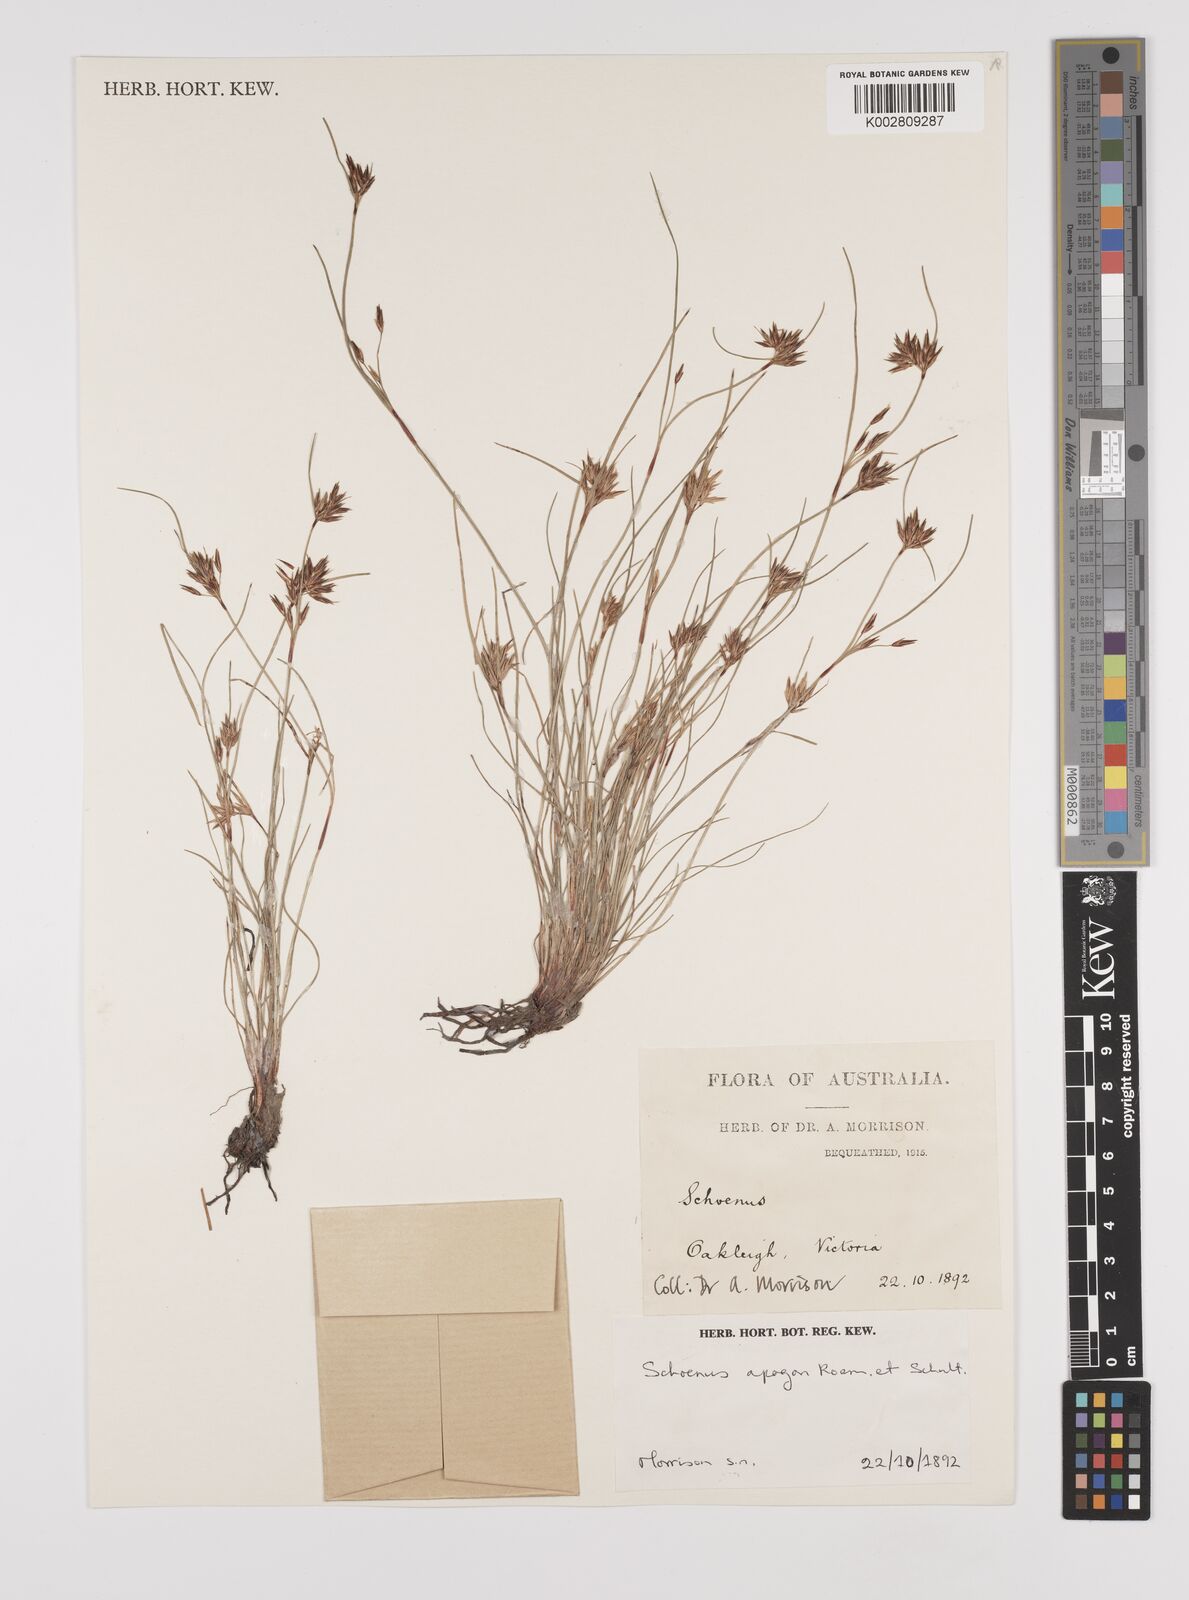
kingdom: Plantae
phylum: Tracheophyta
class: Liliopsida
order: Poales
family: Cyperaceae
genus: Schoenus
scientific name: Schoenus apogon
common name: Smooth bogrush
